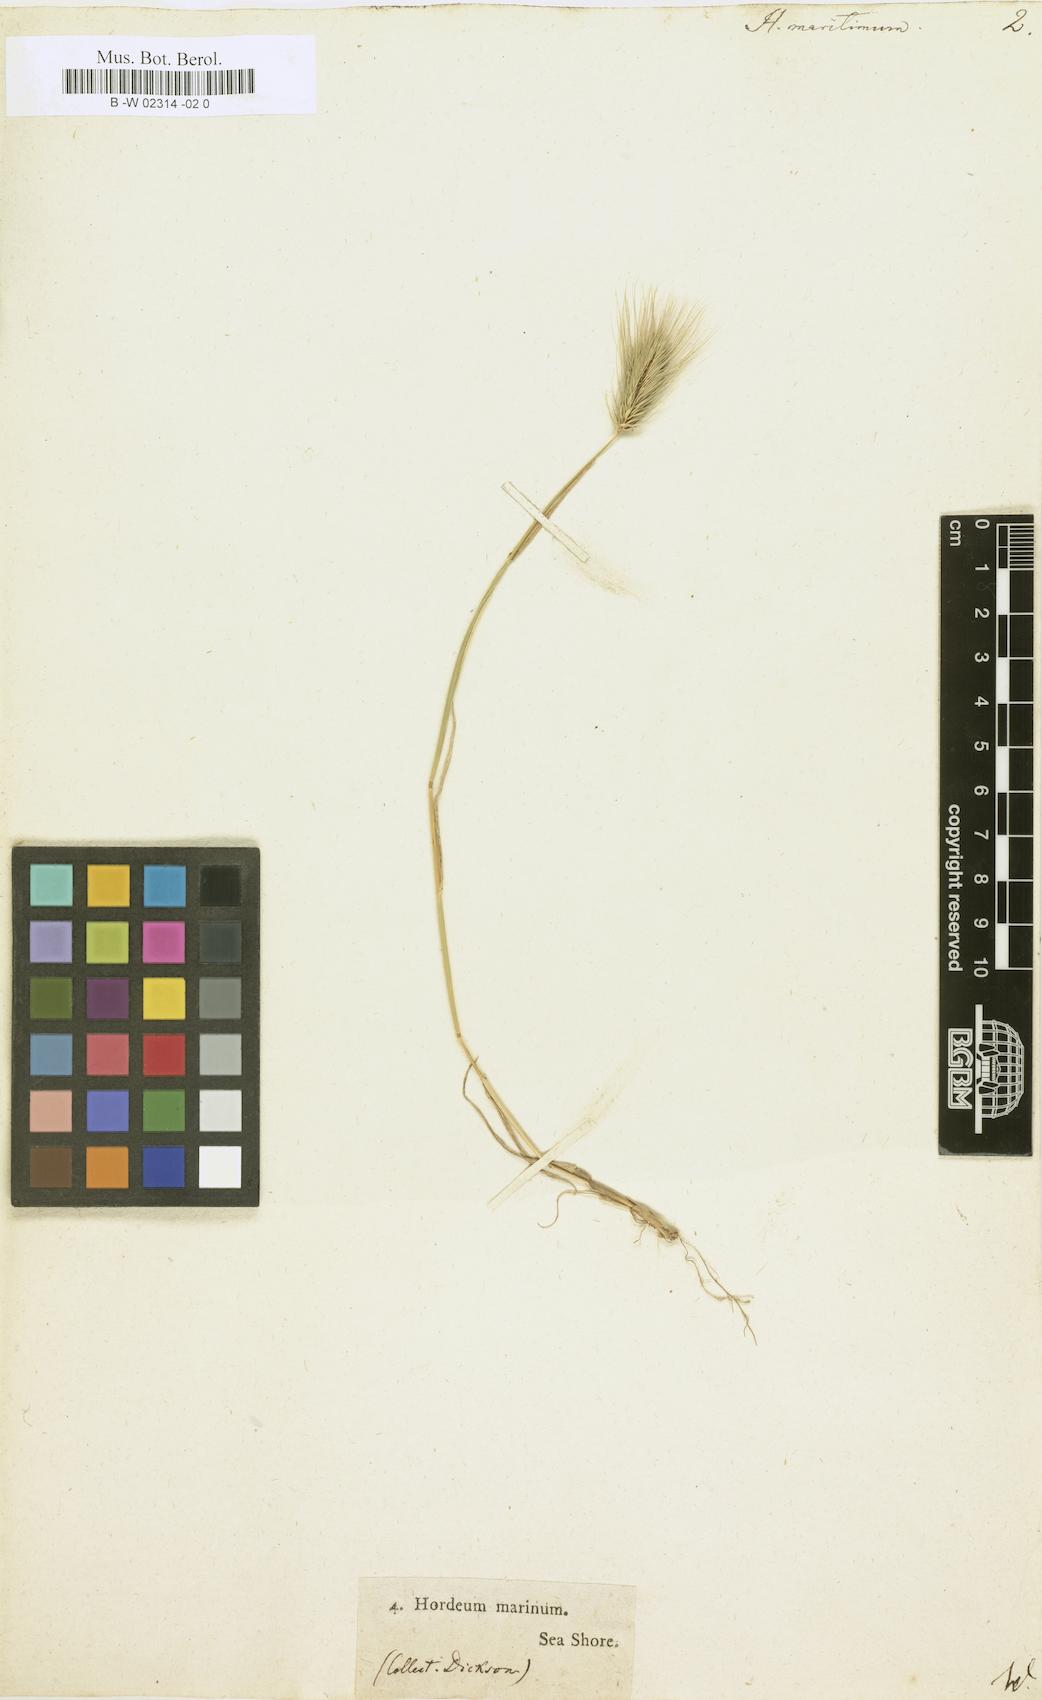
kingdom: Plantae
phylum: Tracheophyta
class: Liliopsida
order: Poales
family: Poaceae
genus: Hordeum
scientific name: Hordeum maritimum
